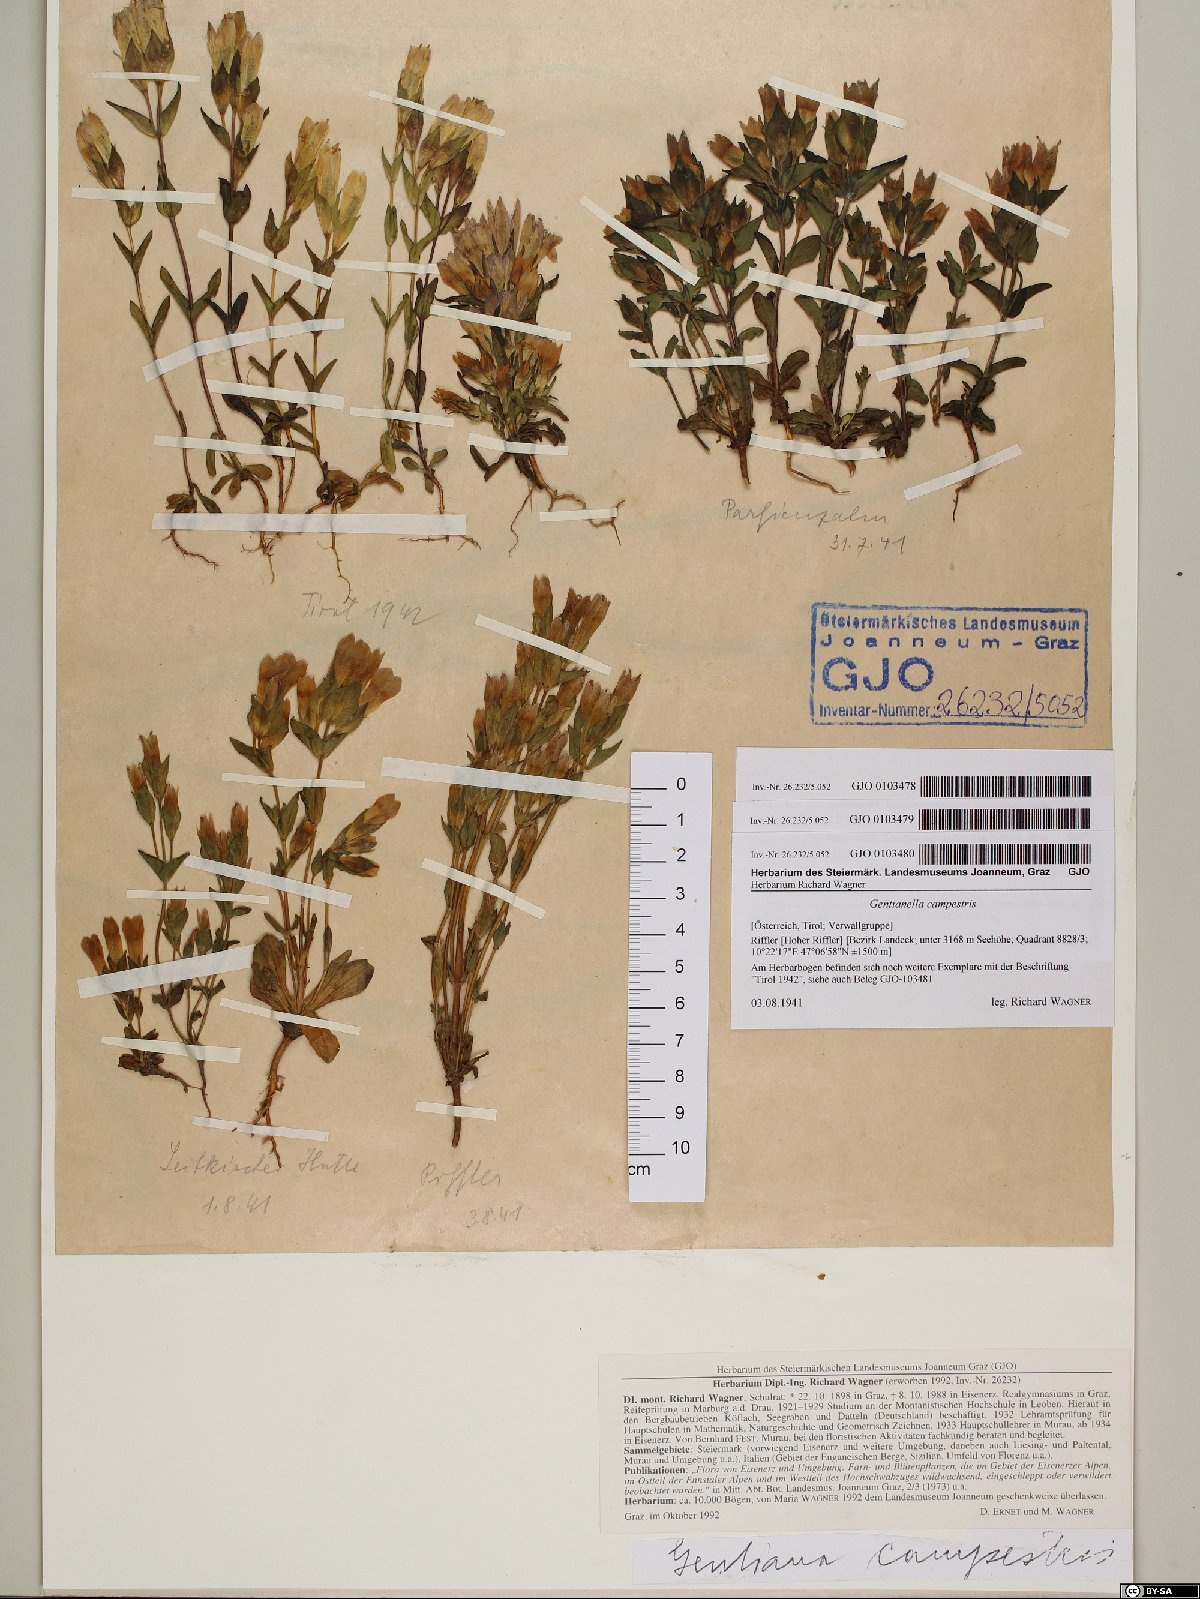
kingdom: Plantae
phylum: Tracheophyta
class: Magnoliopsida
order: Gentianales
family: Gentianaceae
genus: Gentianella
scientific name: Gentianella campestris
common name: Field gentian
